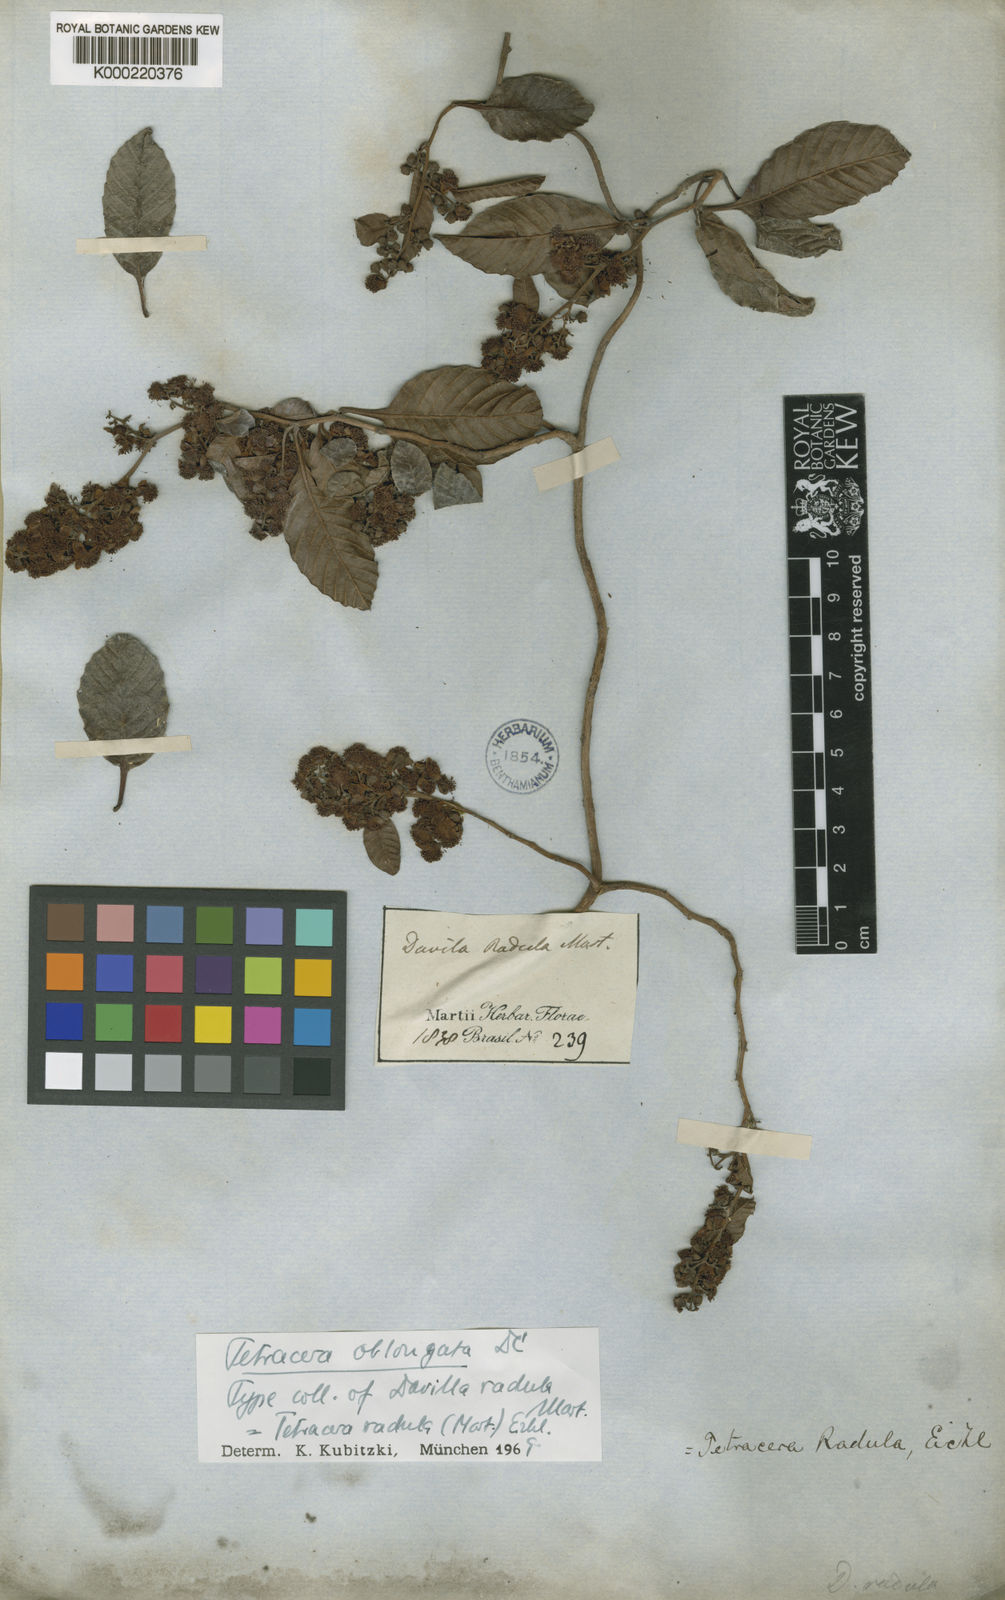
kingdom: Plantae
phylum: Tracheophyta
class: Magnoliopsida
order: Dilleniales
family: Dilleniaceae
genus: Tetracera
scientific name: Tetracera oblongata
